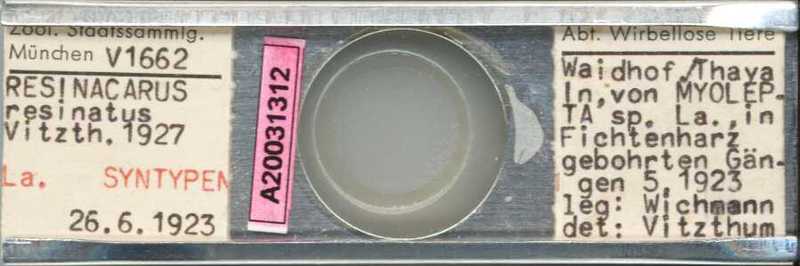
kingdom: Animalia
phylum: Arthropoda
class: Arachnida
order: Trombidiformes
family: Resinacaridae
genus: Resinacarus
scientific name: Resinacarus resinatus
